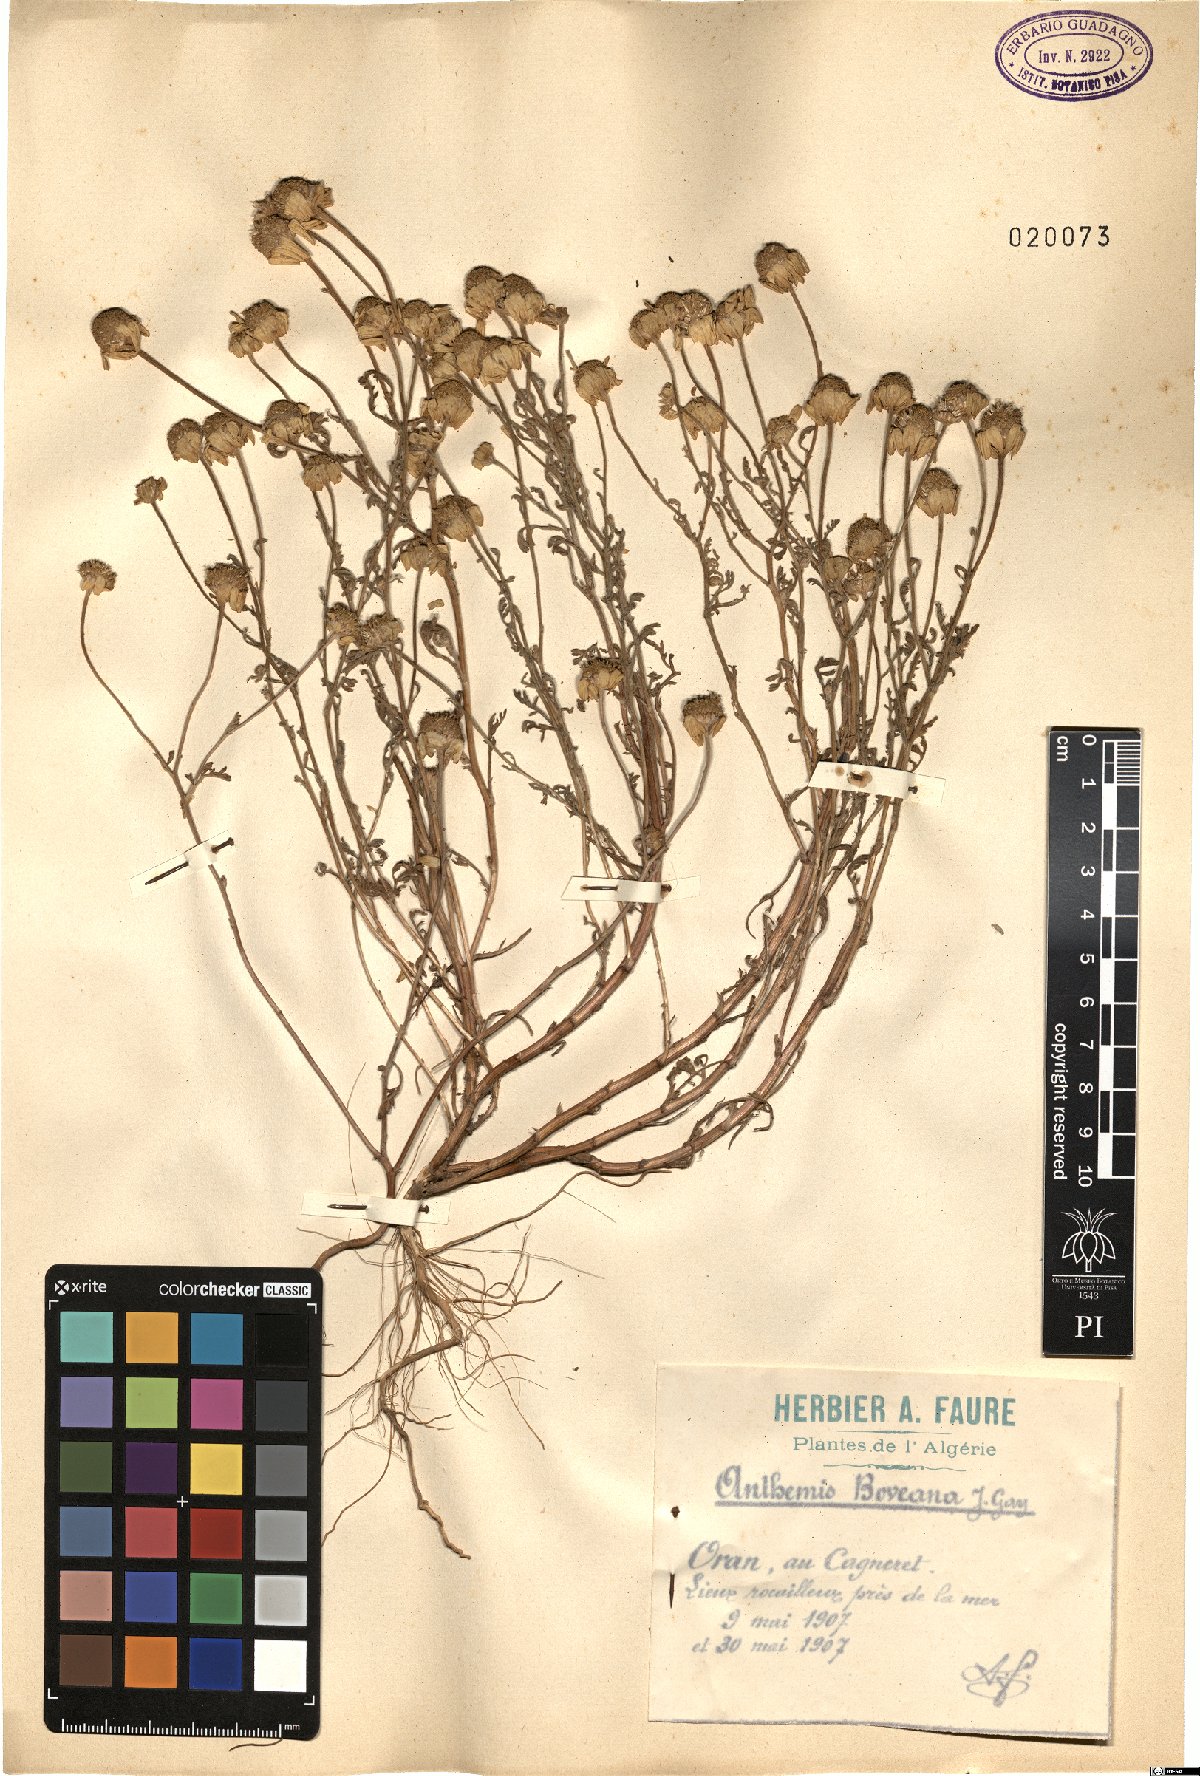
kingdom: Plantae
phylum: Tracheophyta
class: Magnoliopsida
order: Asterales
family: Asteraceae
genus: Anthemis
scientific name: Anthemis boveana
